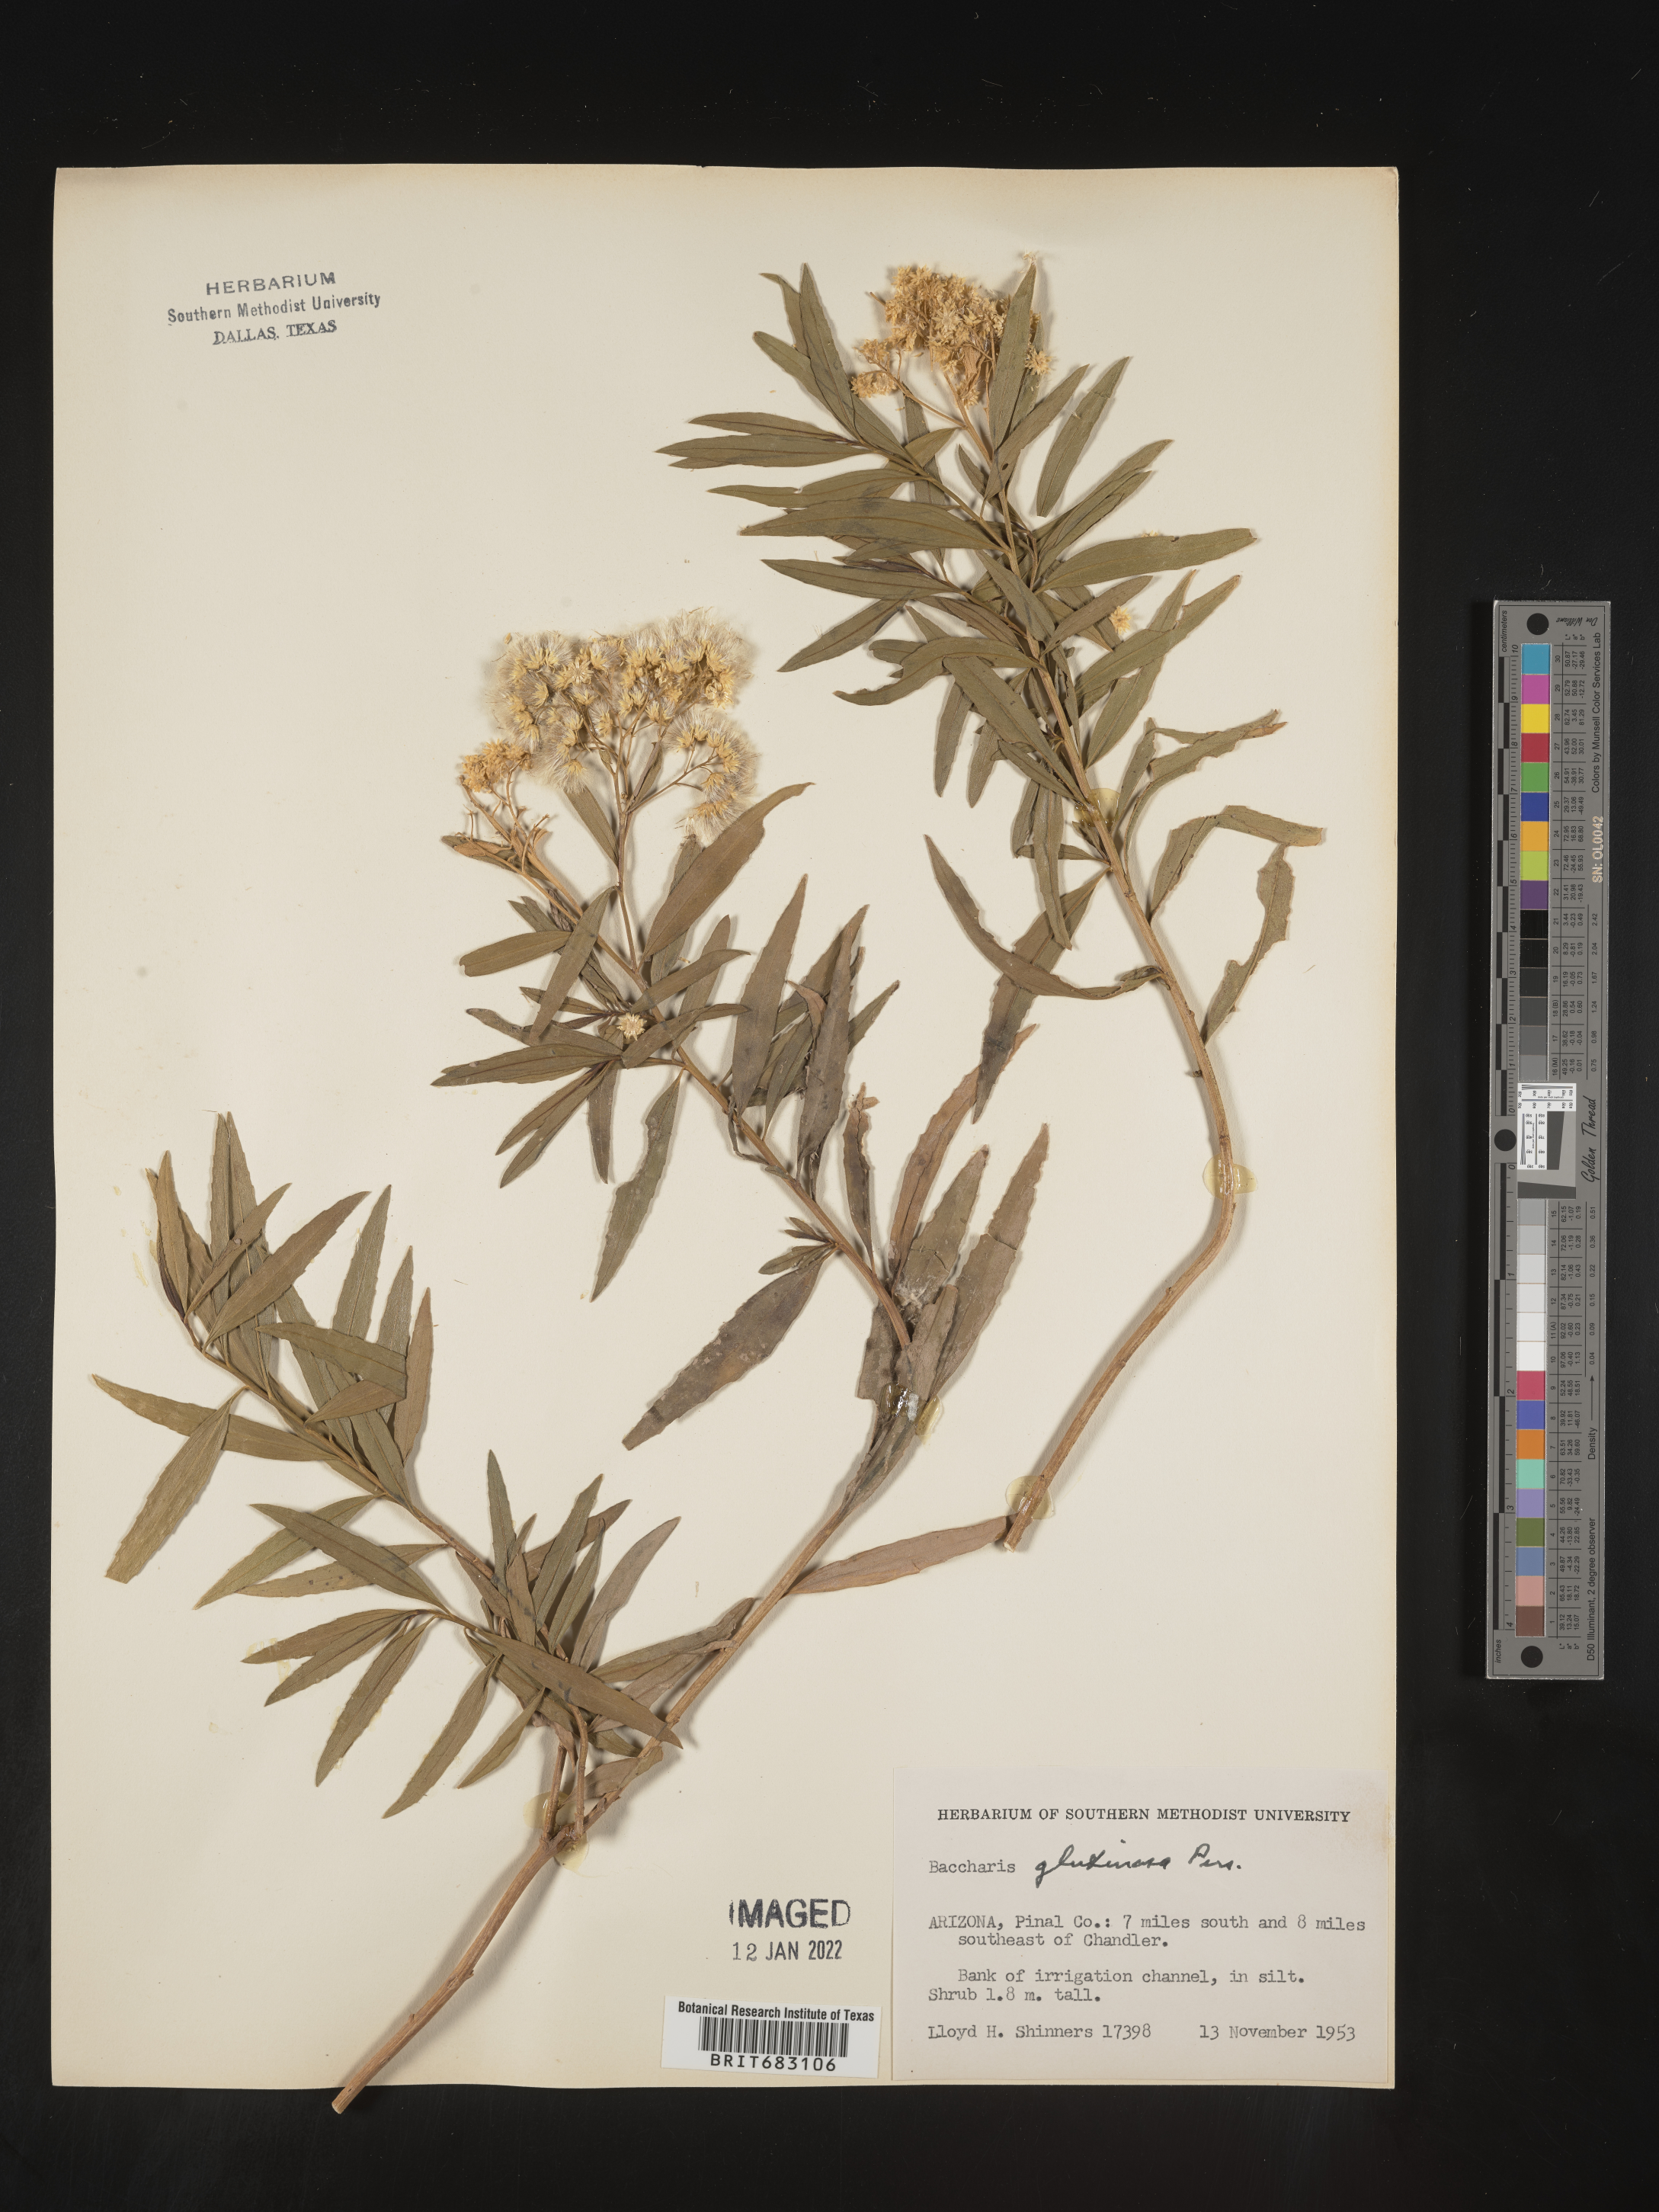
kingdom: Plantae
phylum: Tracheophyta
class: Magnoliopsida
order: Asterales
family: Asteraceae
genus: Baccharis
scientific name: Baccharis salicifolia
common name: Sticky baccharis
